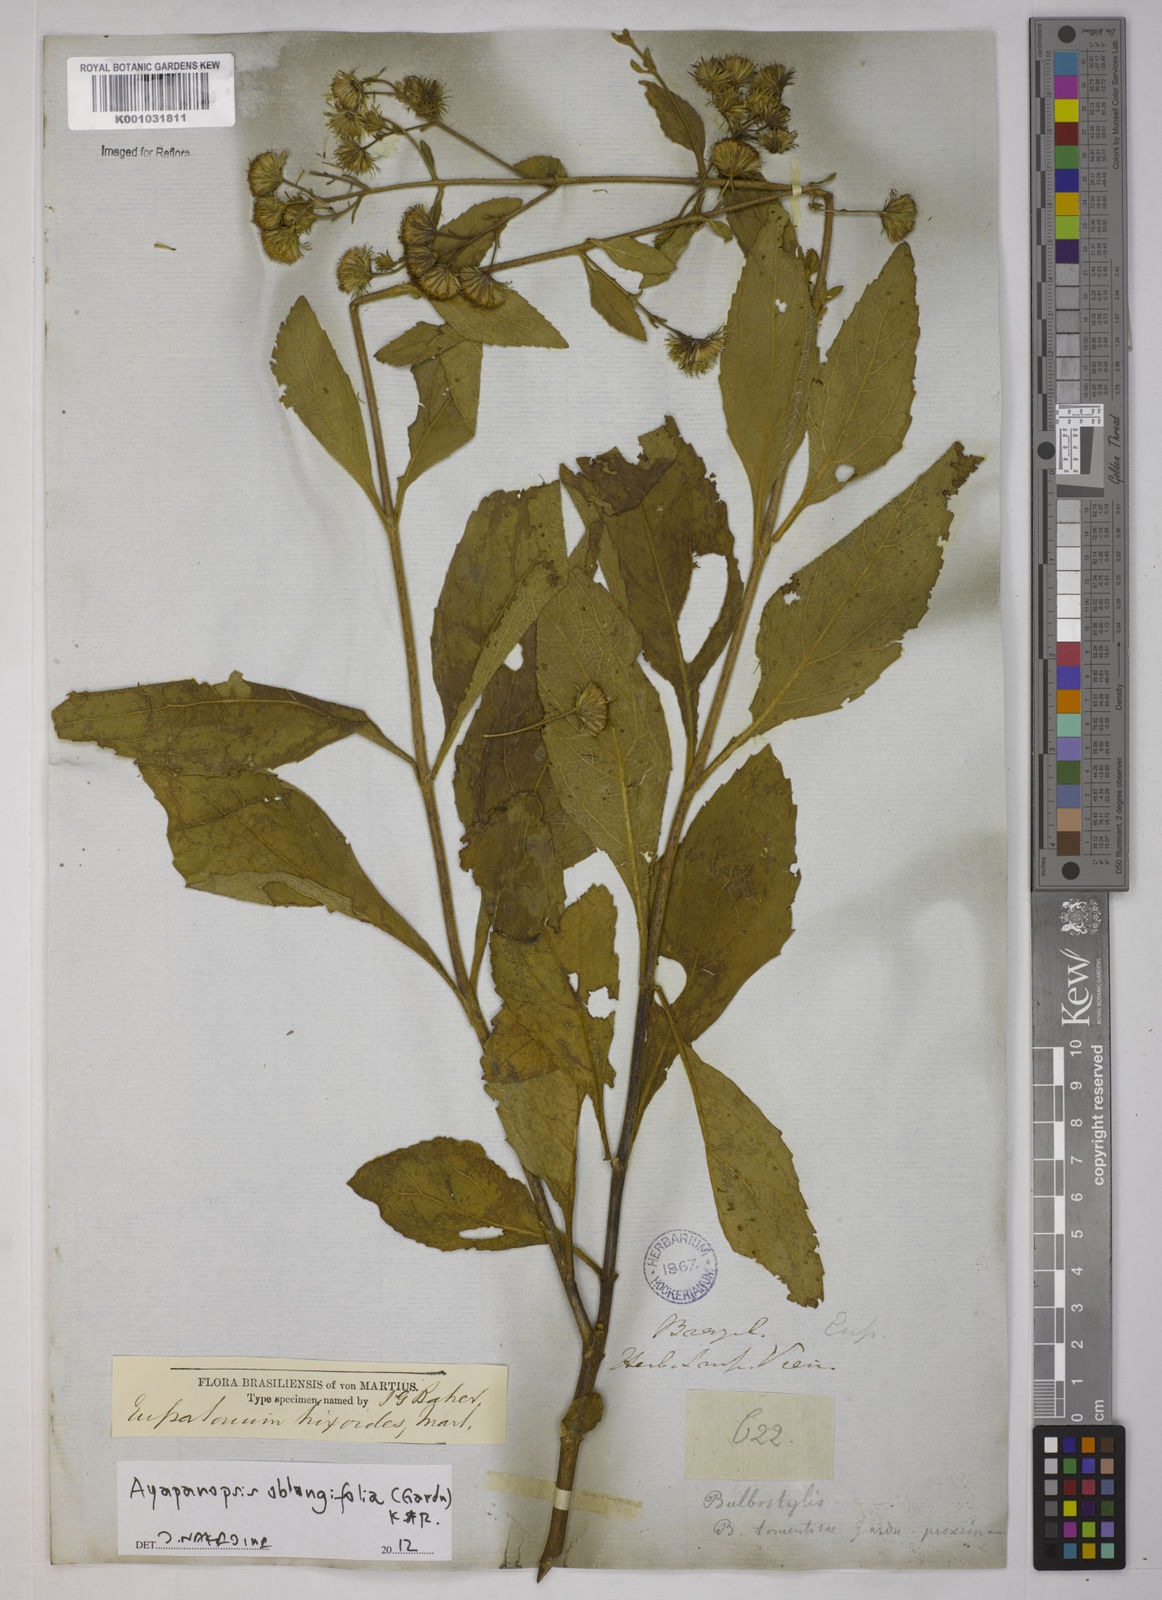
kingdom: Plantae
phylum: Tracheophyta
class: Magnoliopsida
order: Asterales
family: Asteraceae
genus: Ayapanopsis
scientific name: Ayapanopsis oblongifolia
